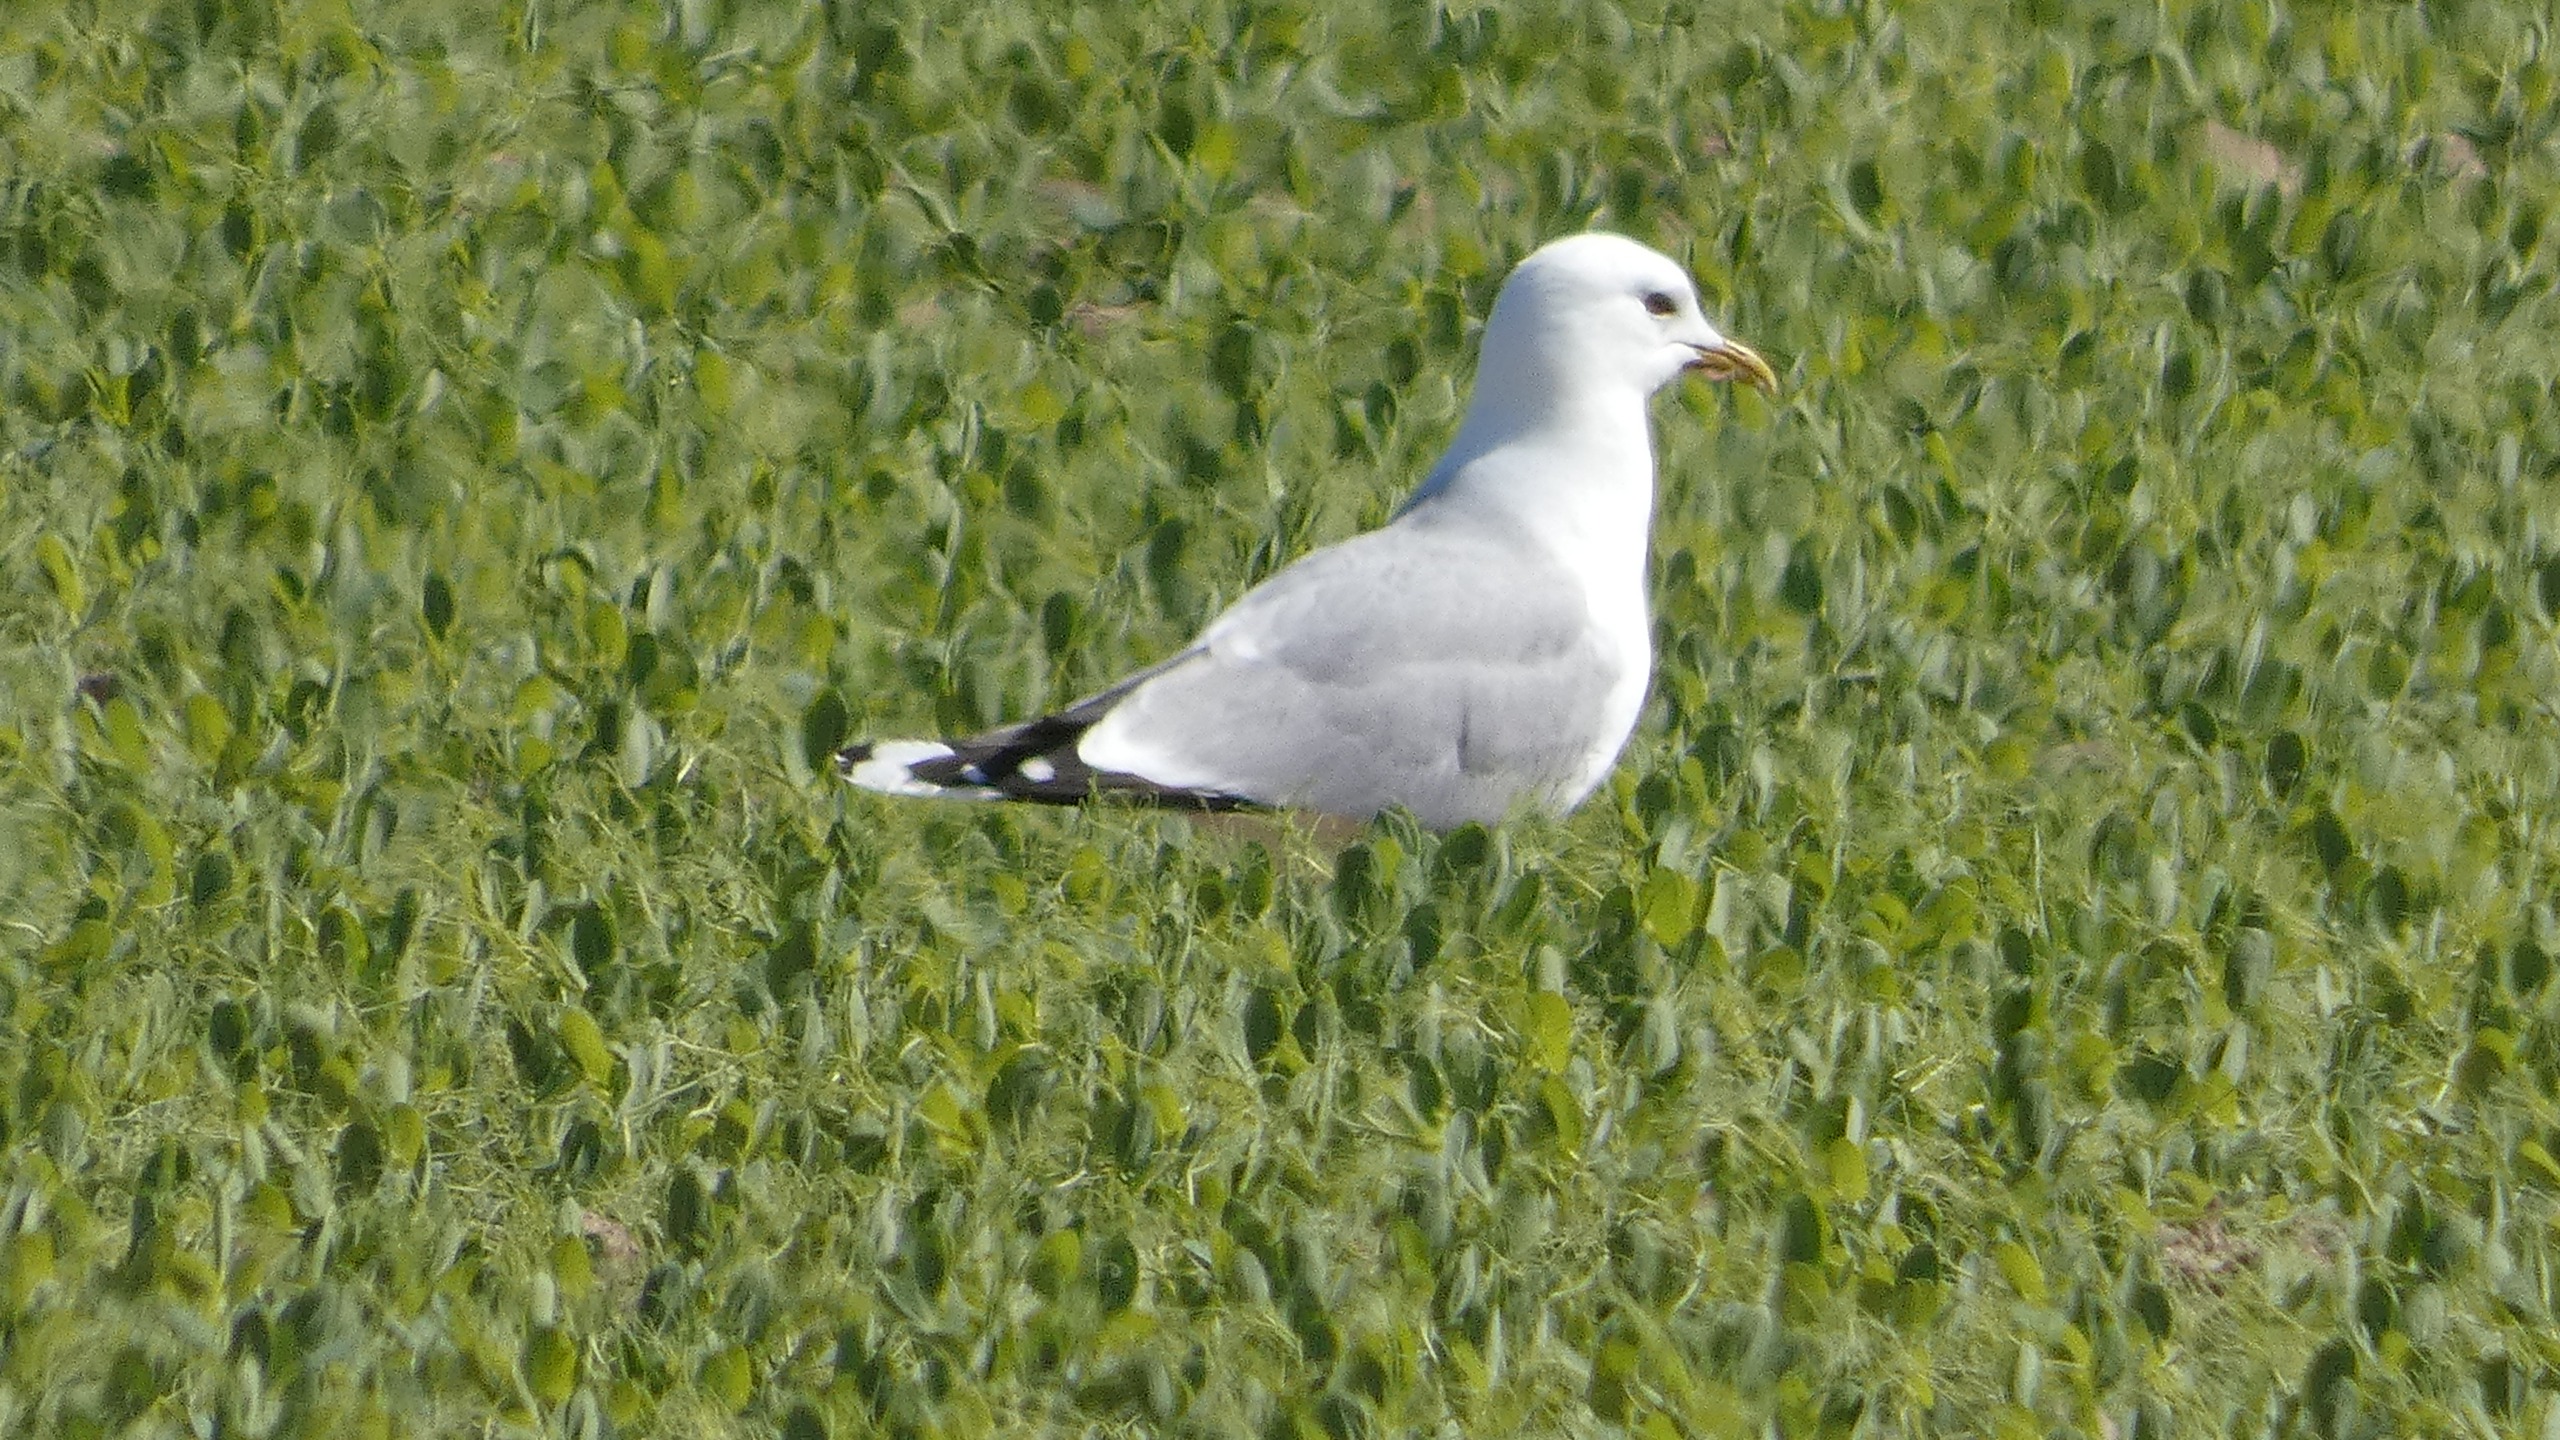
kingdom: Animalia
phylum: Chordata
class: Aves
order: Charadriiformes
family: Laridae
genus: Larus
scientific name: Larus canus
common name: Stormmåge
